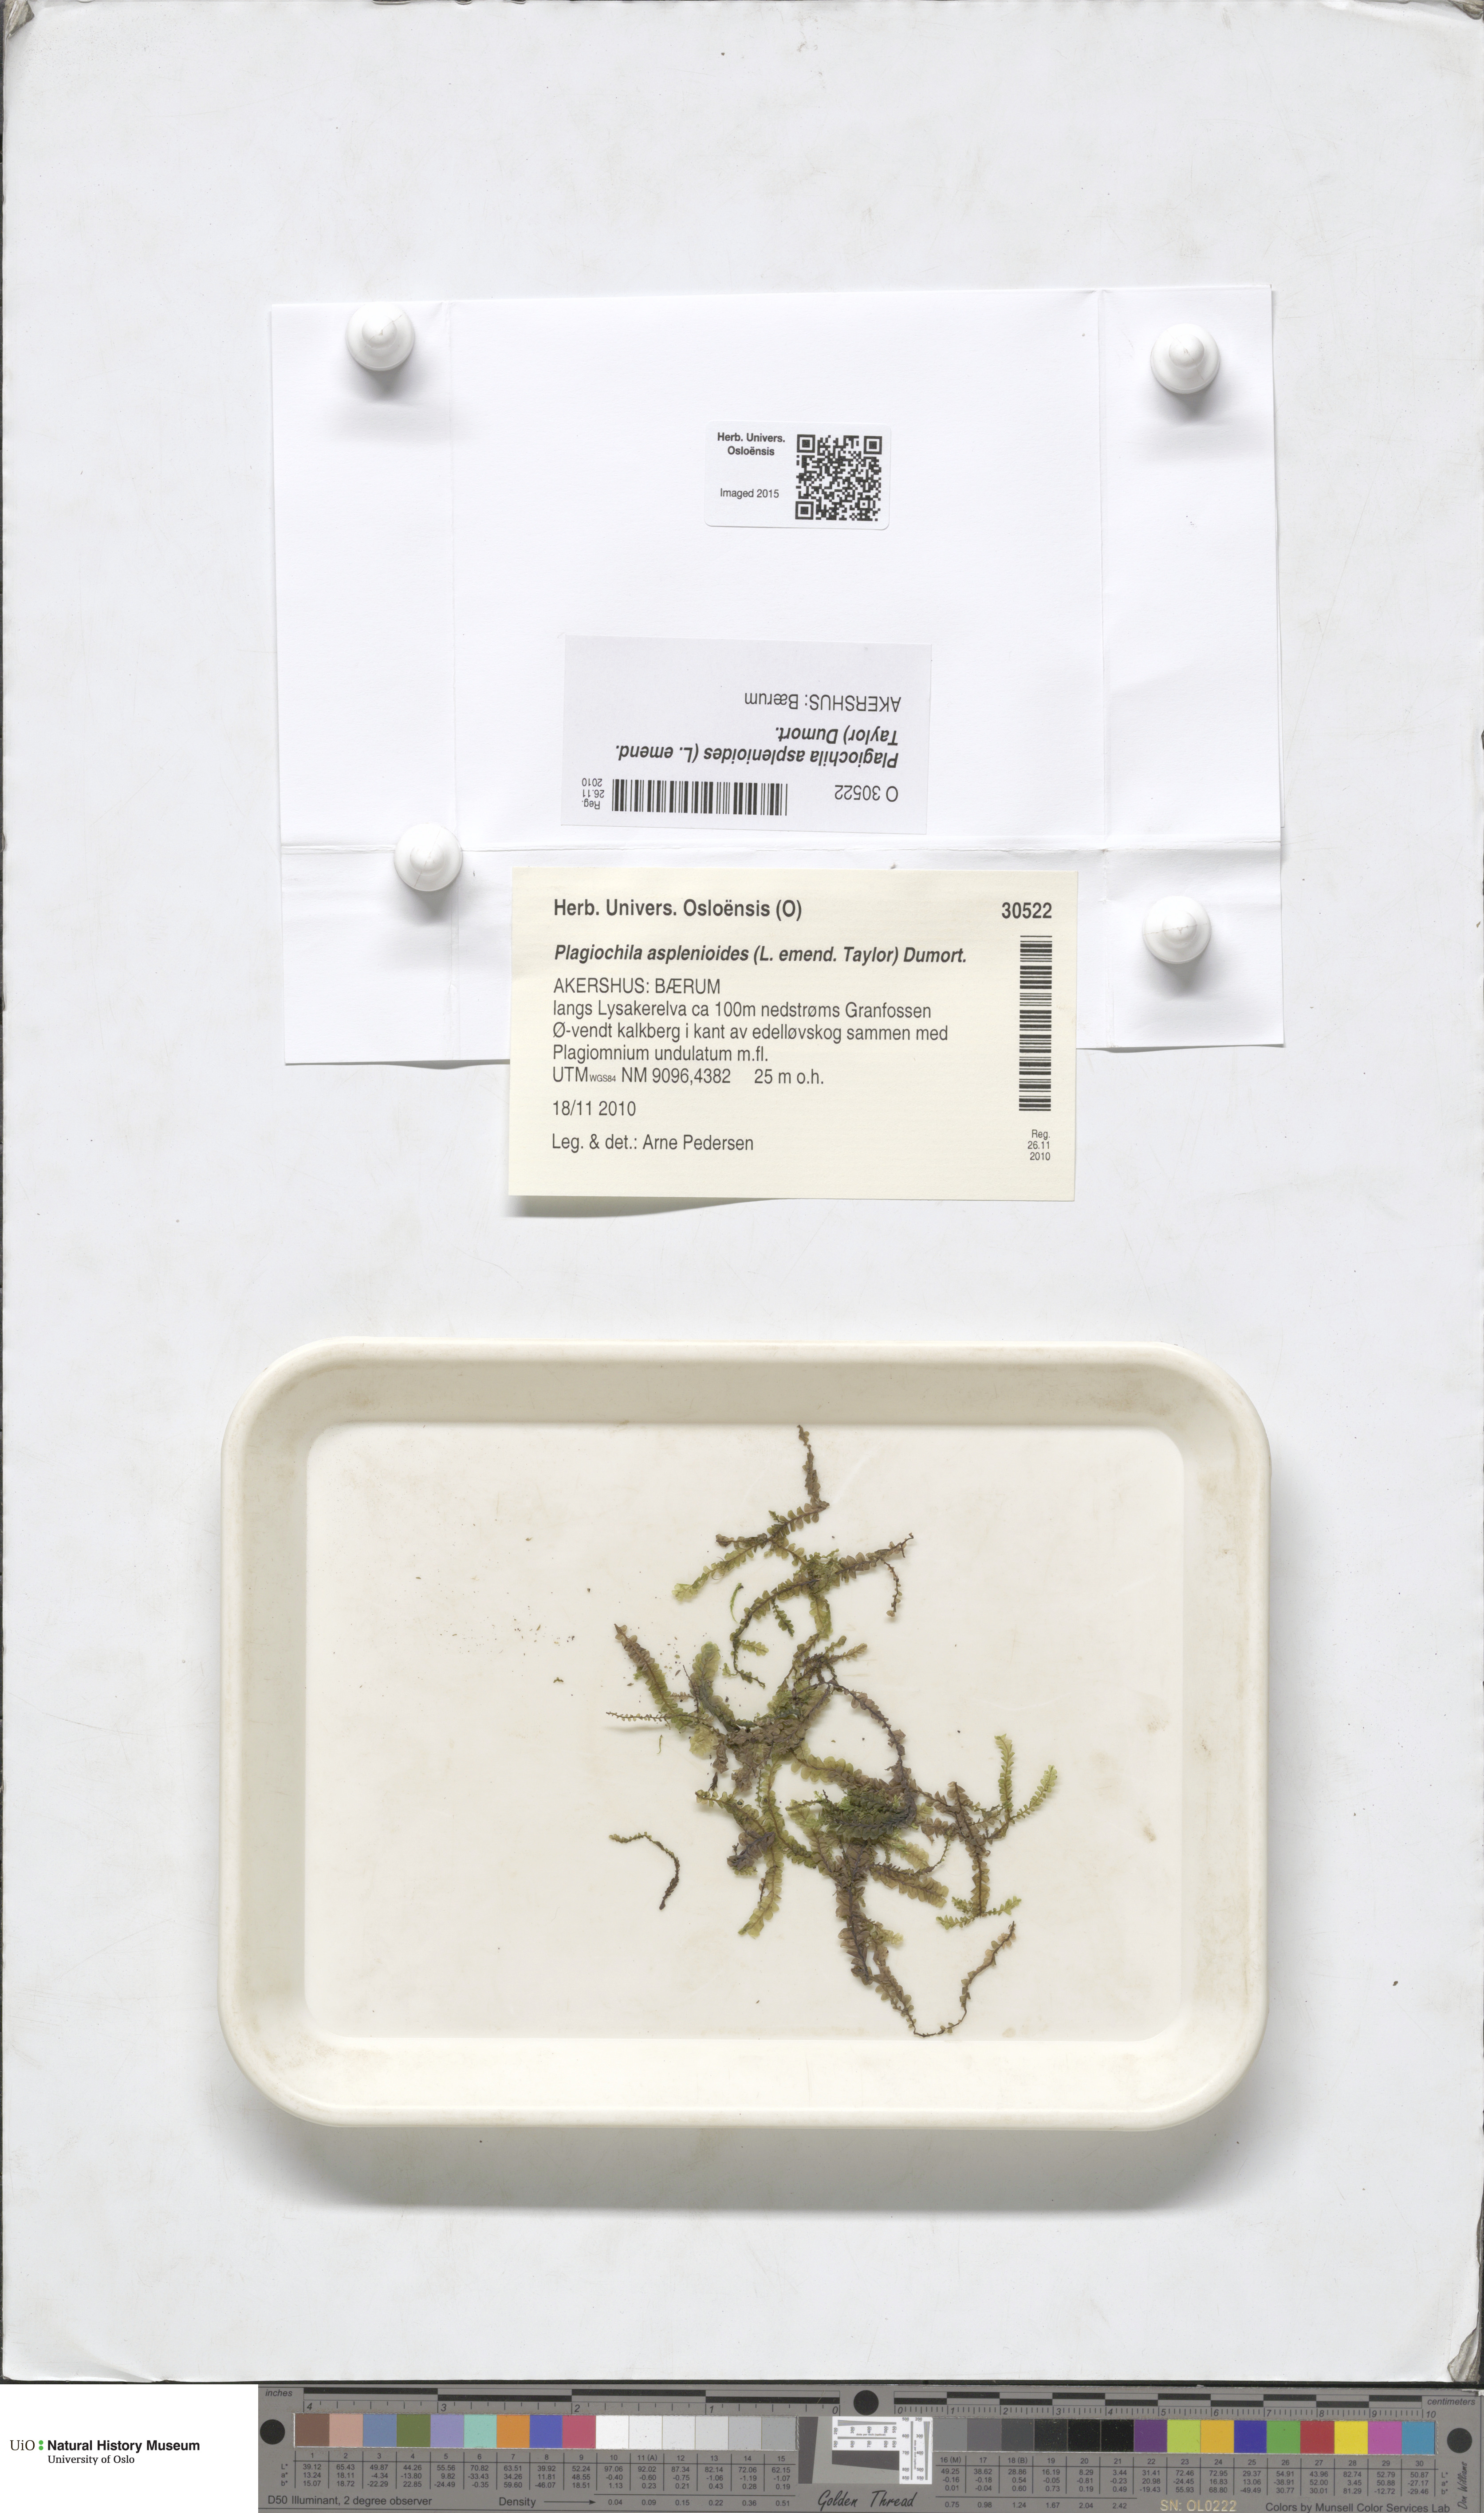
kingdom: Plantae
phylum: Marchantiophyta
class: Jungermanniopsida
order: Jungermanniales
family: Plagiochilaceae
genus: Plagiochila
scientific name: Plagiochila asplenioides
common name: Greater featherwort
